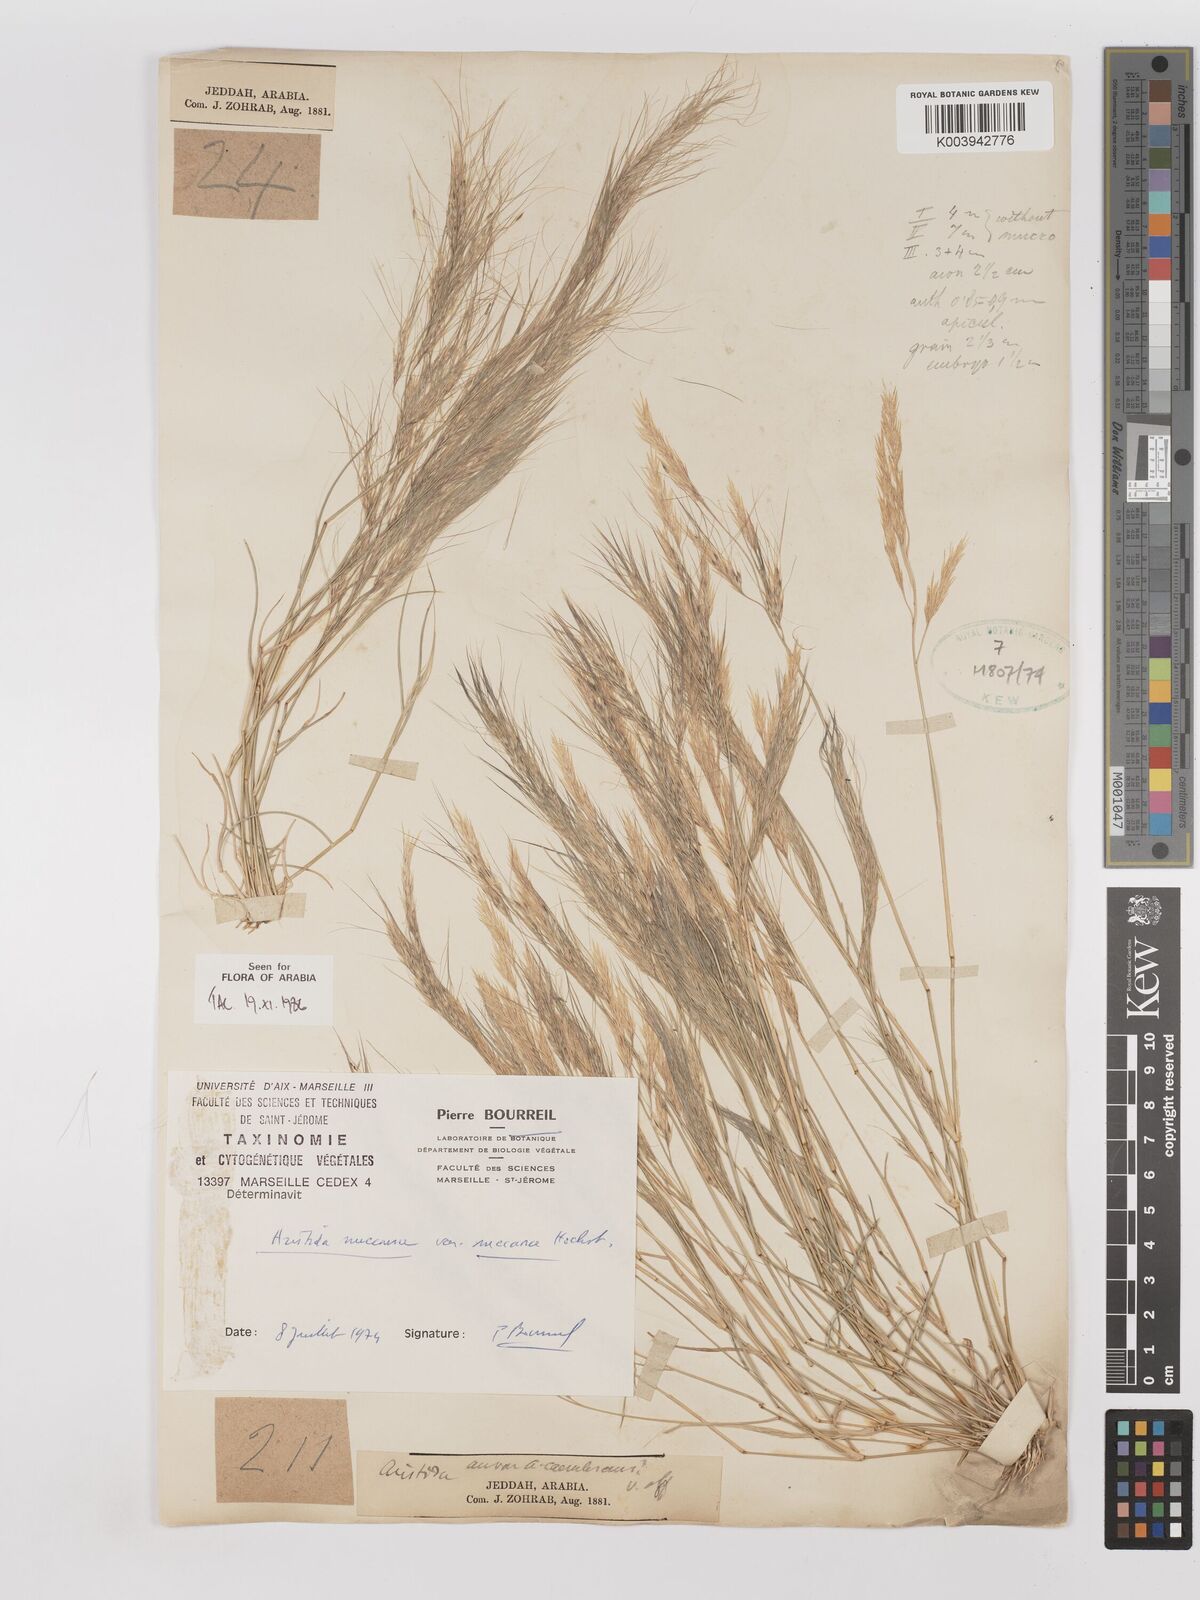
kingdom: Plantae
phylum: Tracheophyta
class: Liliopsida
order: Poales
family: Poaceae
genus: Aristida
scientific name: Aristida mutabilis
